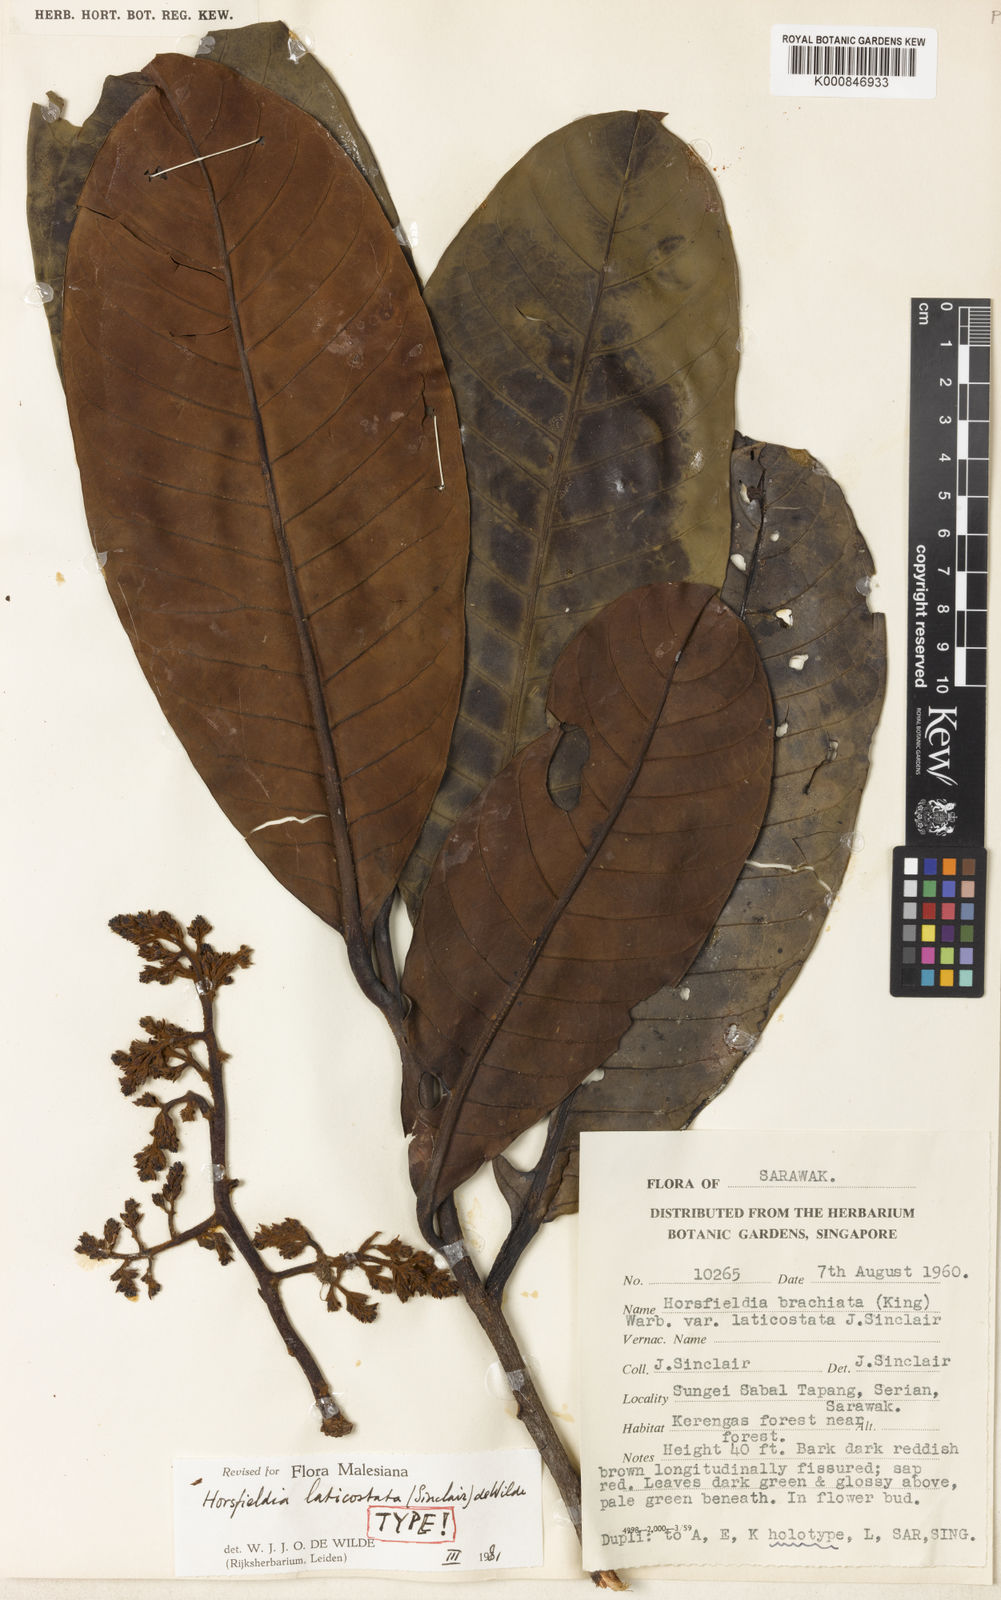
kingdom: Plantae
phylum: Tracheophyta
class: Magnoliopsida
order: Magnoliales
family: Myristicaceae
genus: Horsfieldia
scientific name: Horsfieldia laticostata
